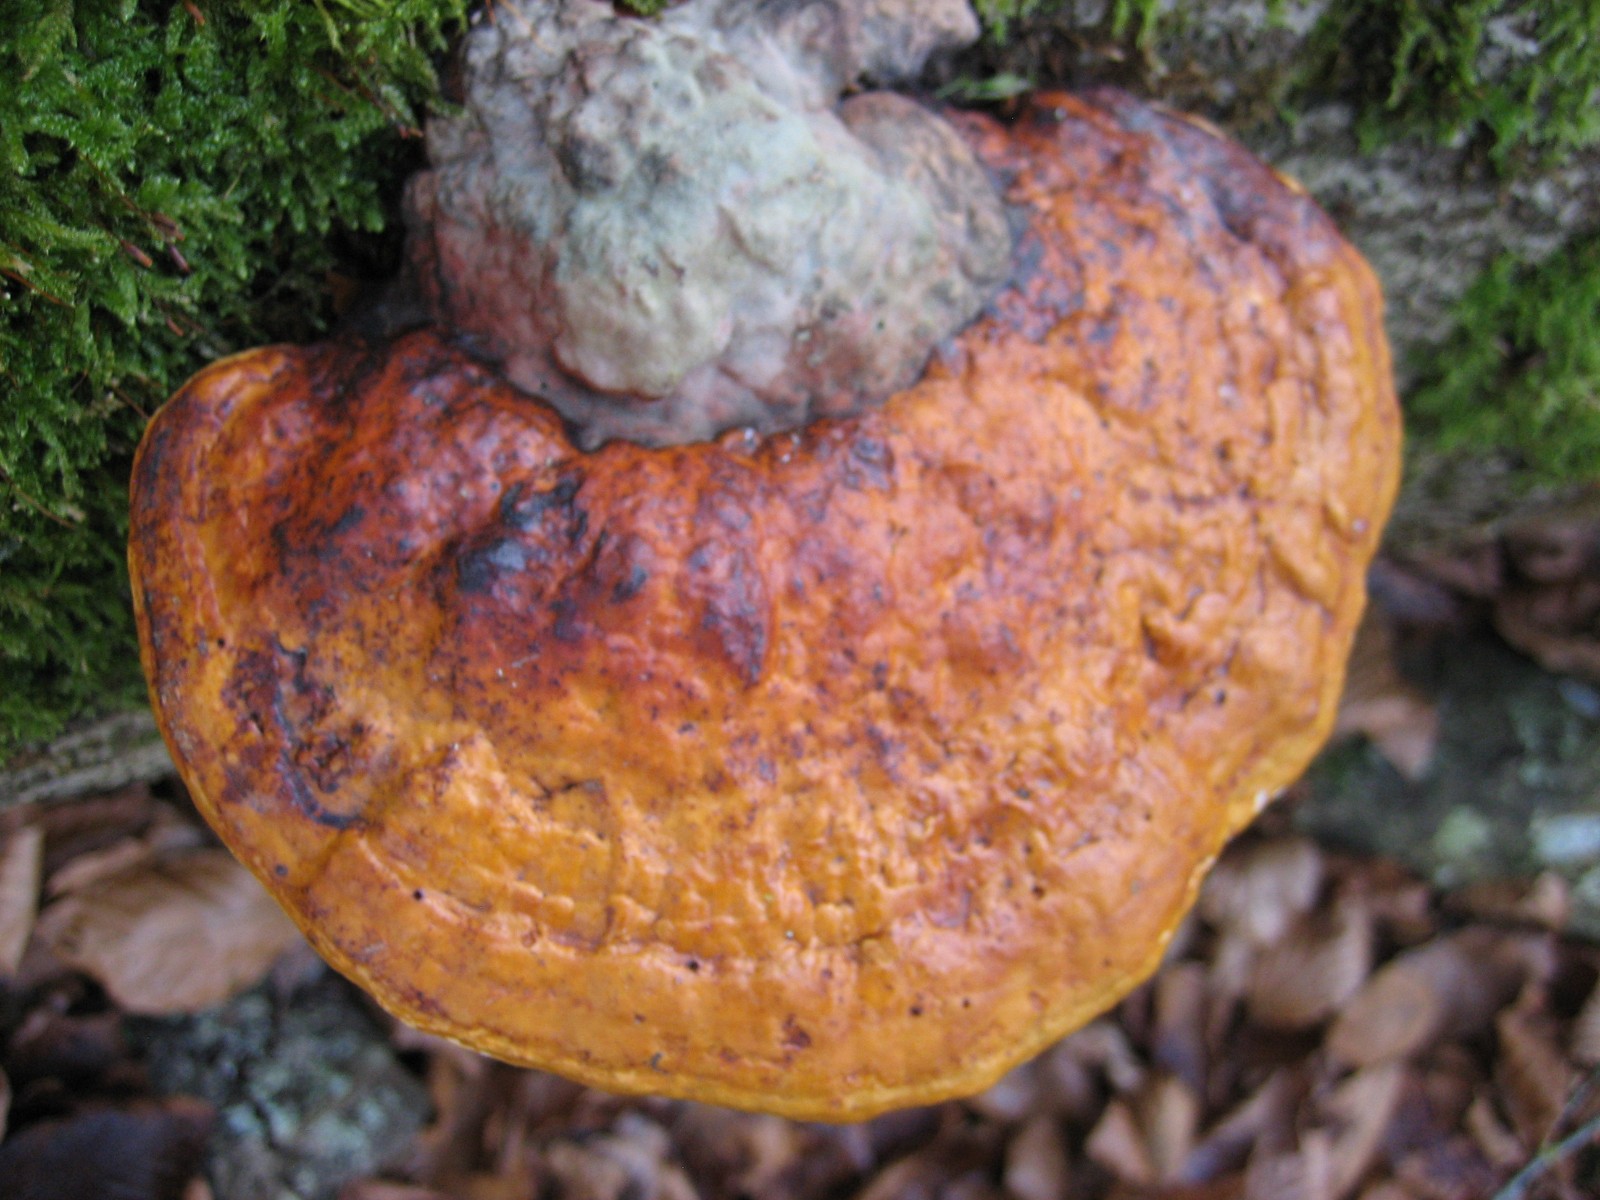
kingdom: Fungi
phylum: Basidiomycota
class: Agaricomycetes
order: Polyporales
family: Fomitopsidaceae
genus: Fomitopsis
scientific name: Fomitopsis pinicola
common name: randbæltet hovporesvamp
